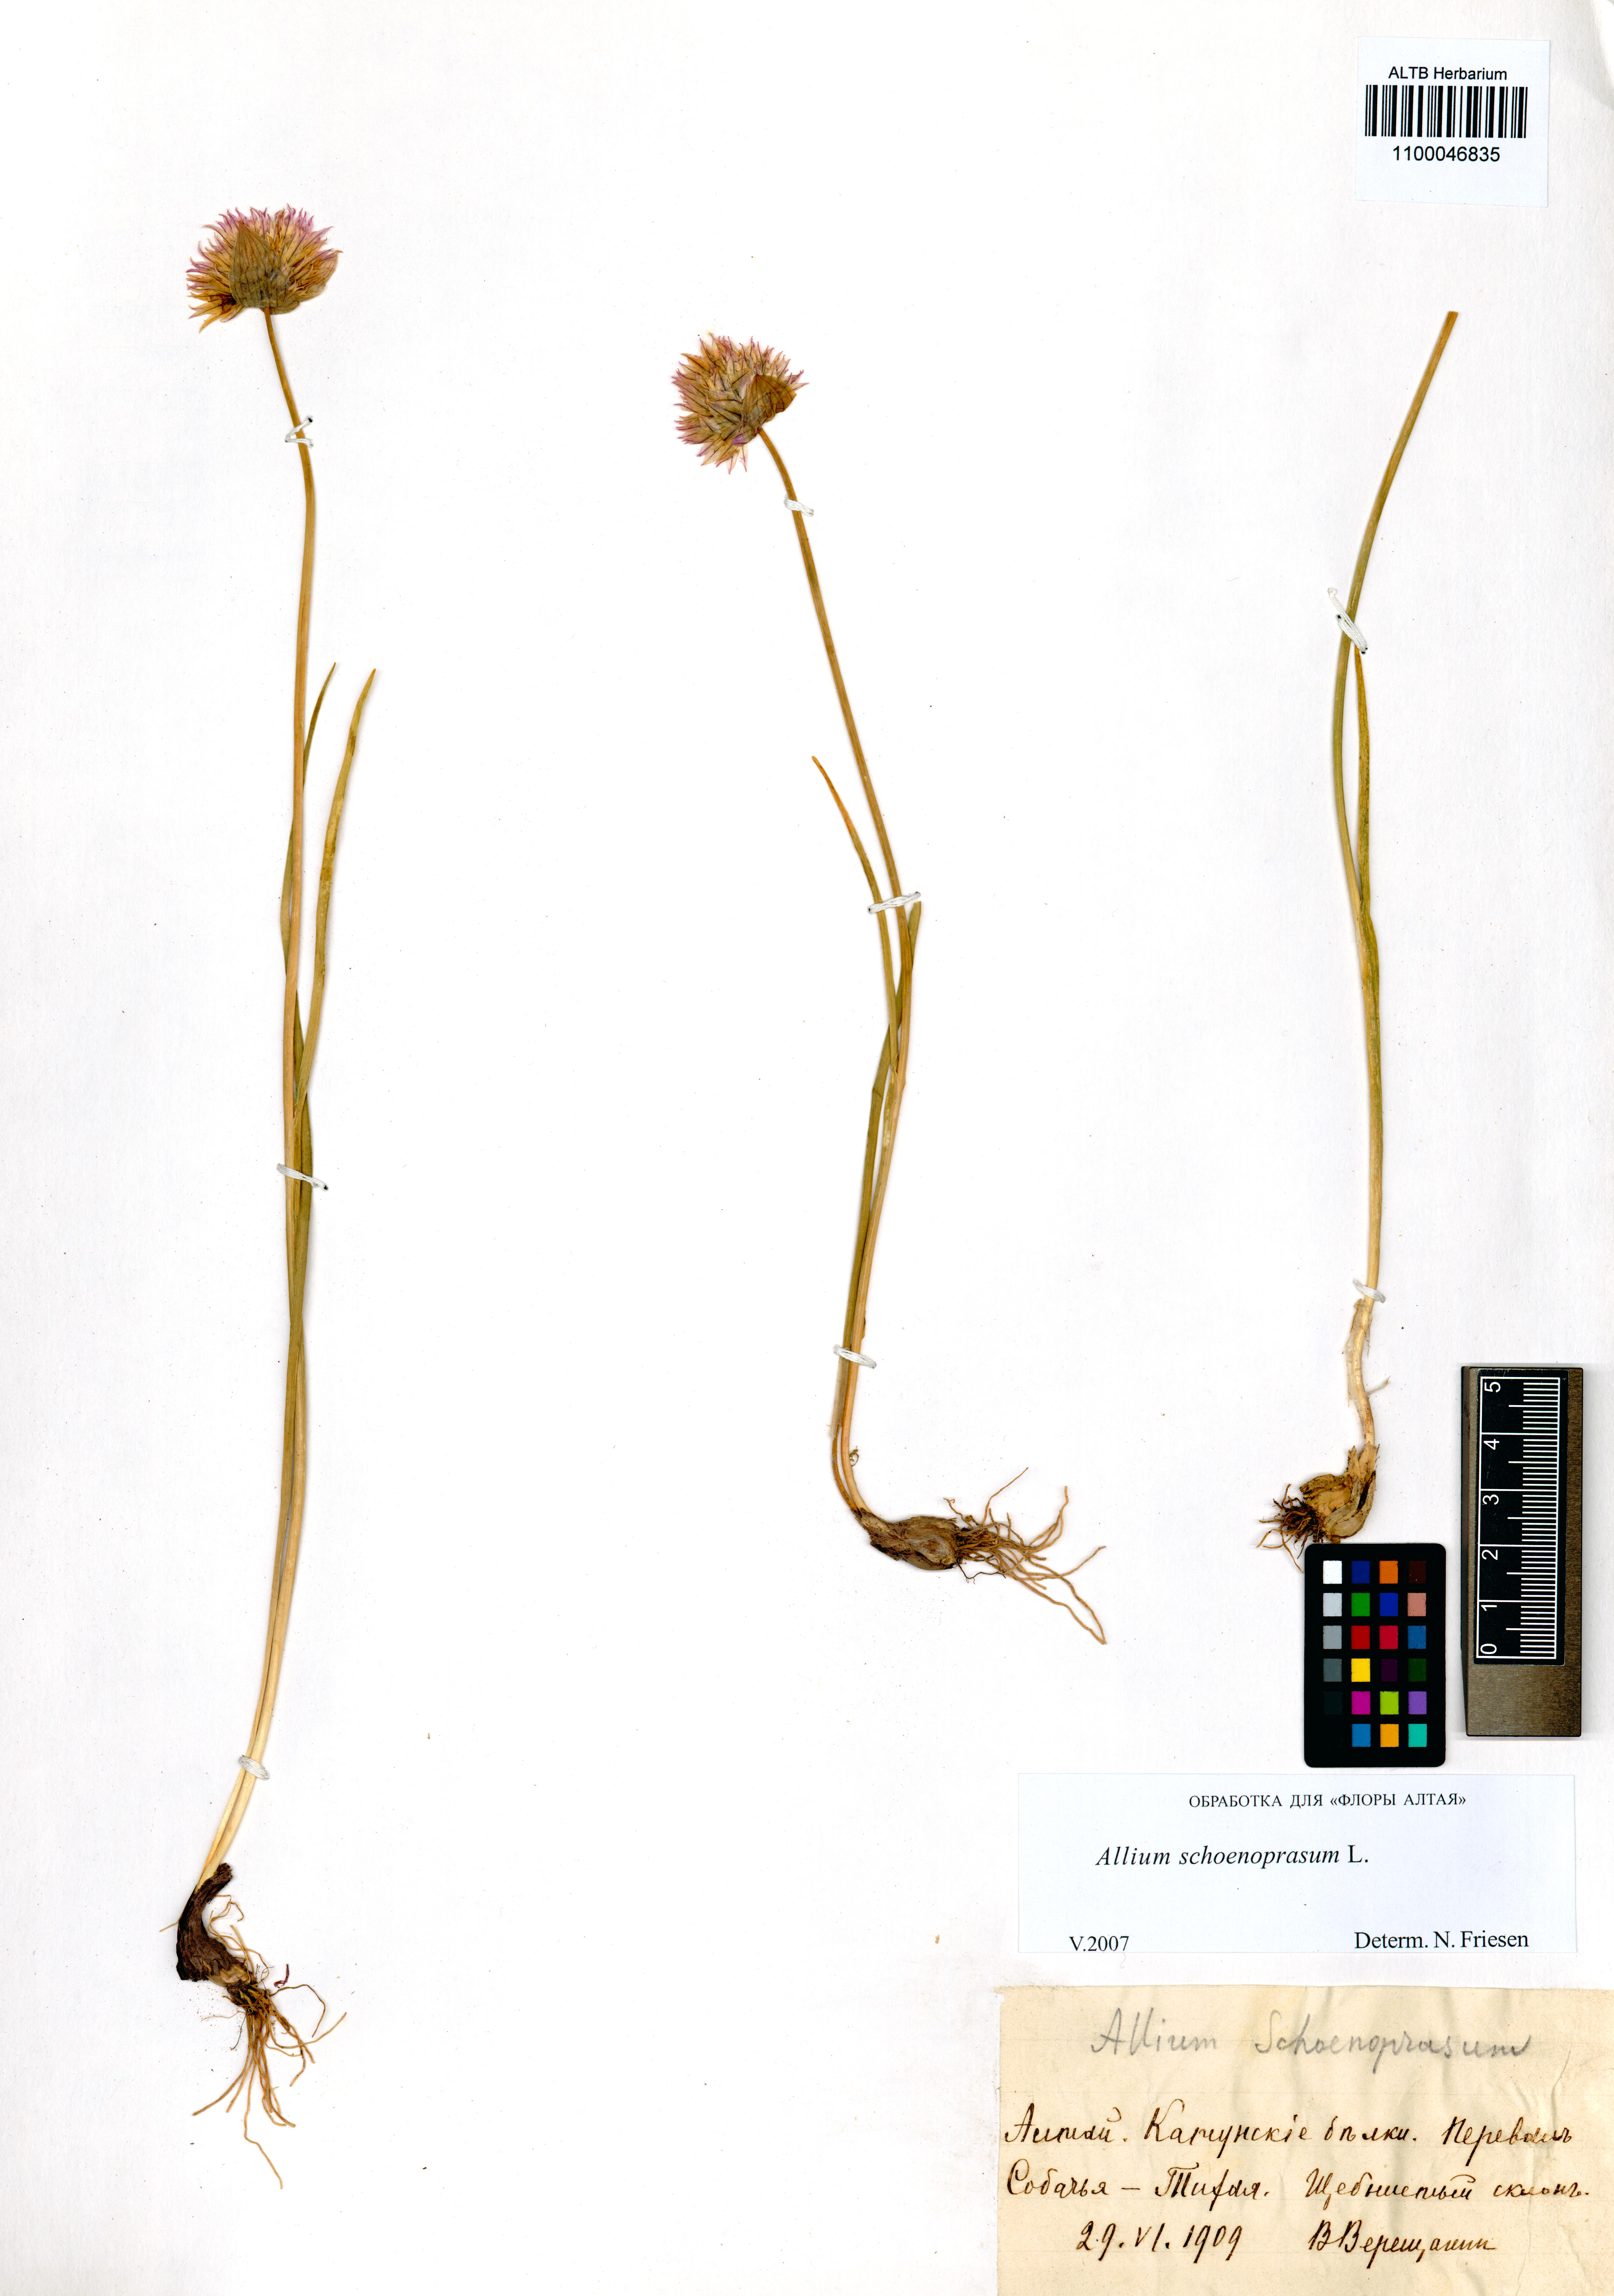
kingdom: Plantae
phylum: Tracheophyta
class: Liliopsida
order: Asparagales
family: Amaryllidaceae
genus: Allium
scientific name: Allium schoenoprasum
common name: Chives
